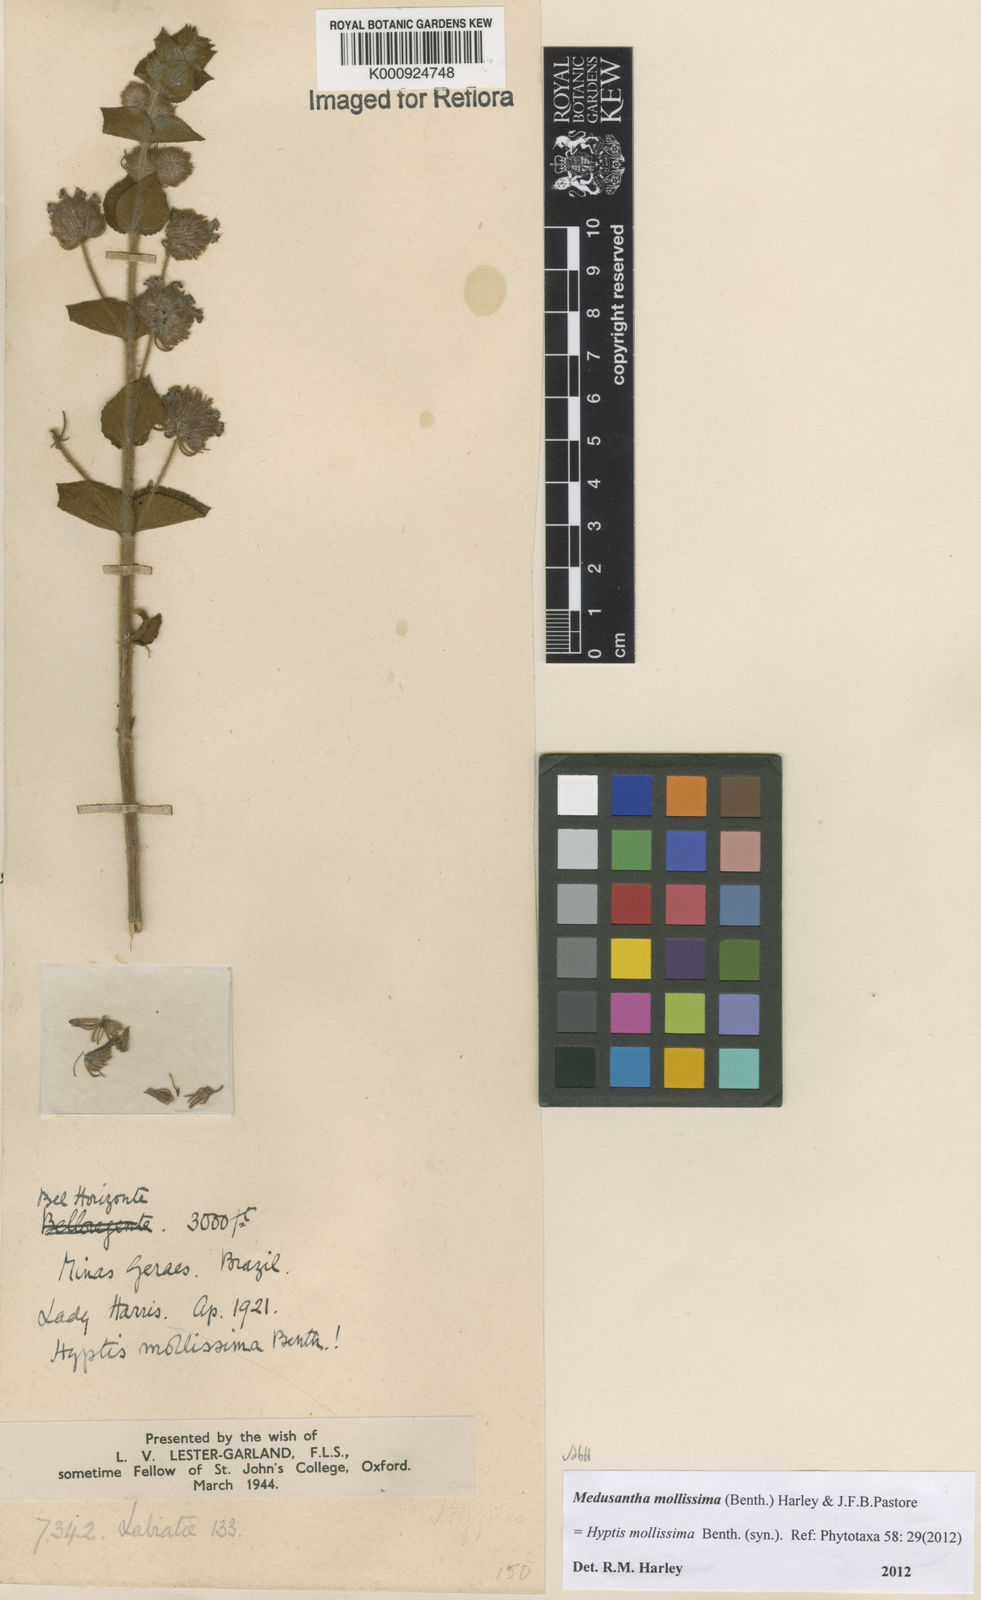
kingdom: Plantae
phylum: Tracheophyta
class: Magnoliopsida
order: Lamiales
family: Lamiaceae
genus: Medusantha
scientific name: Medusantha mollissima
